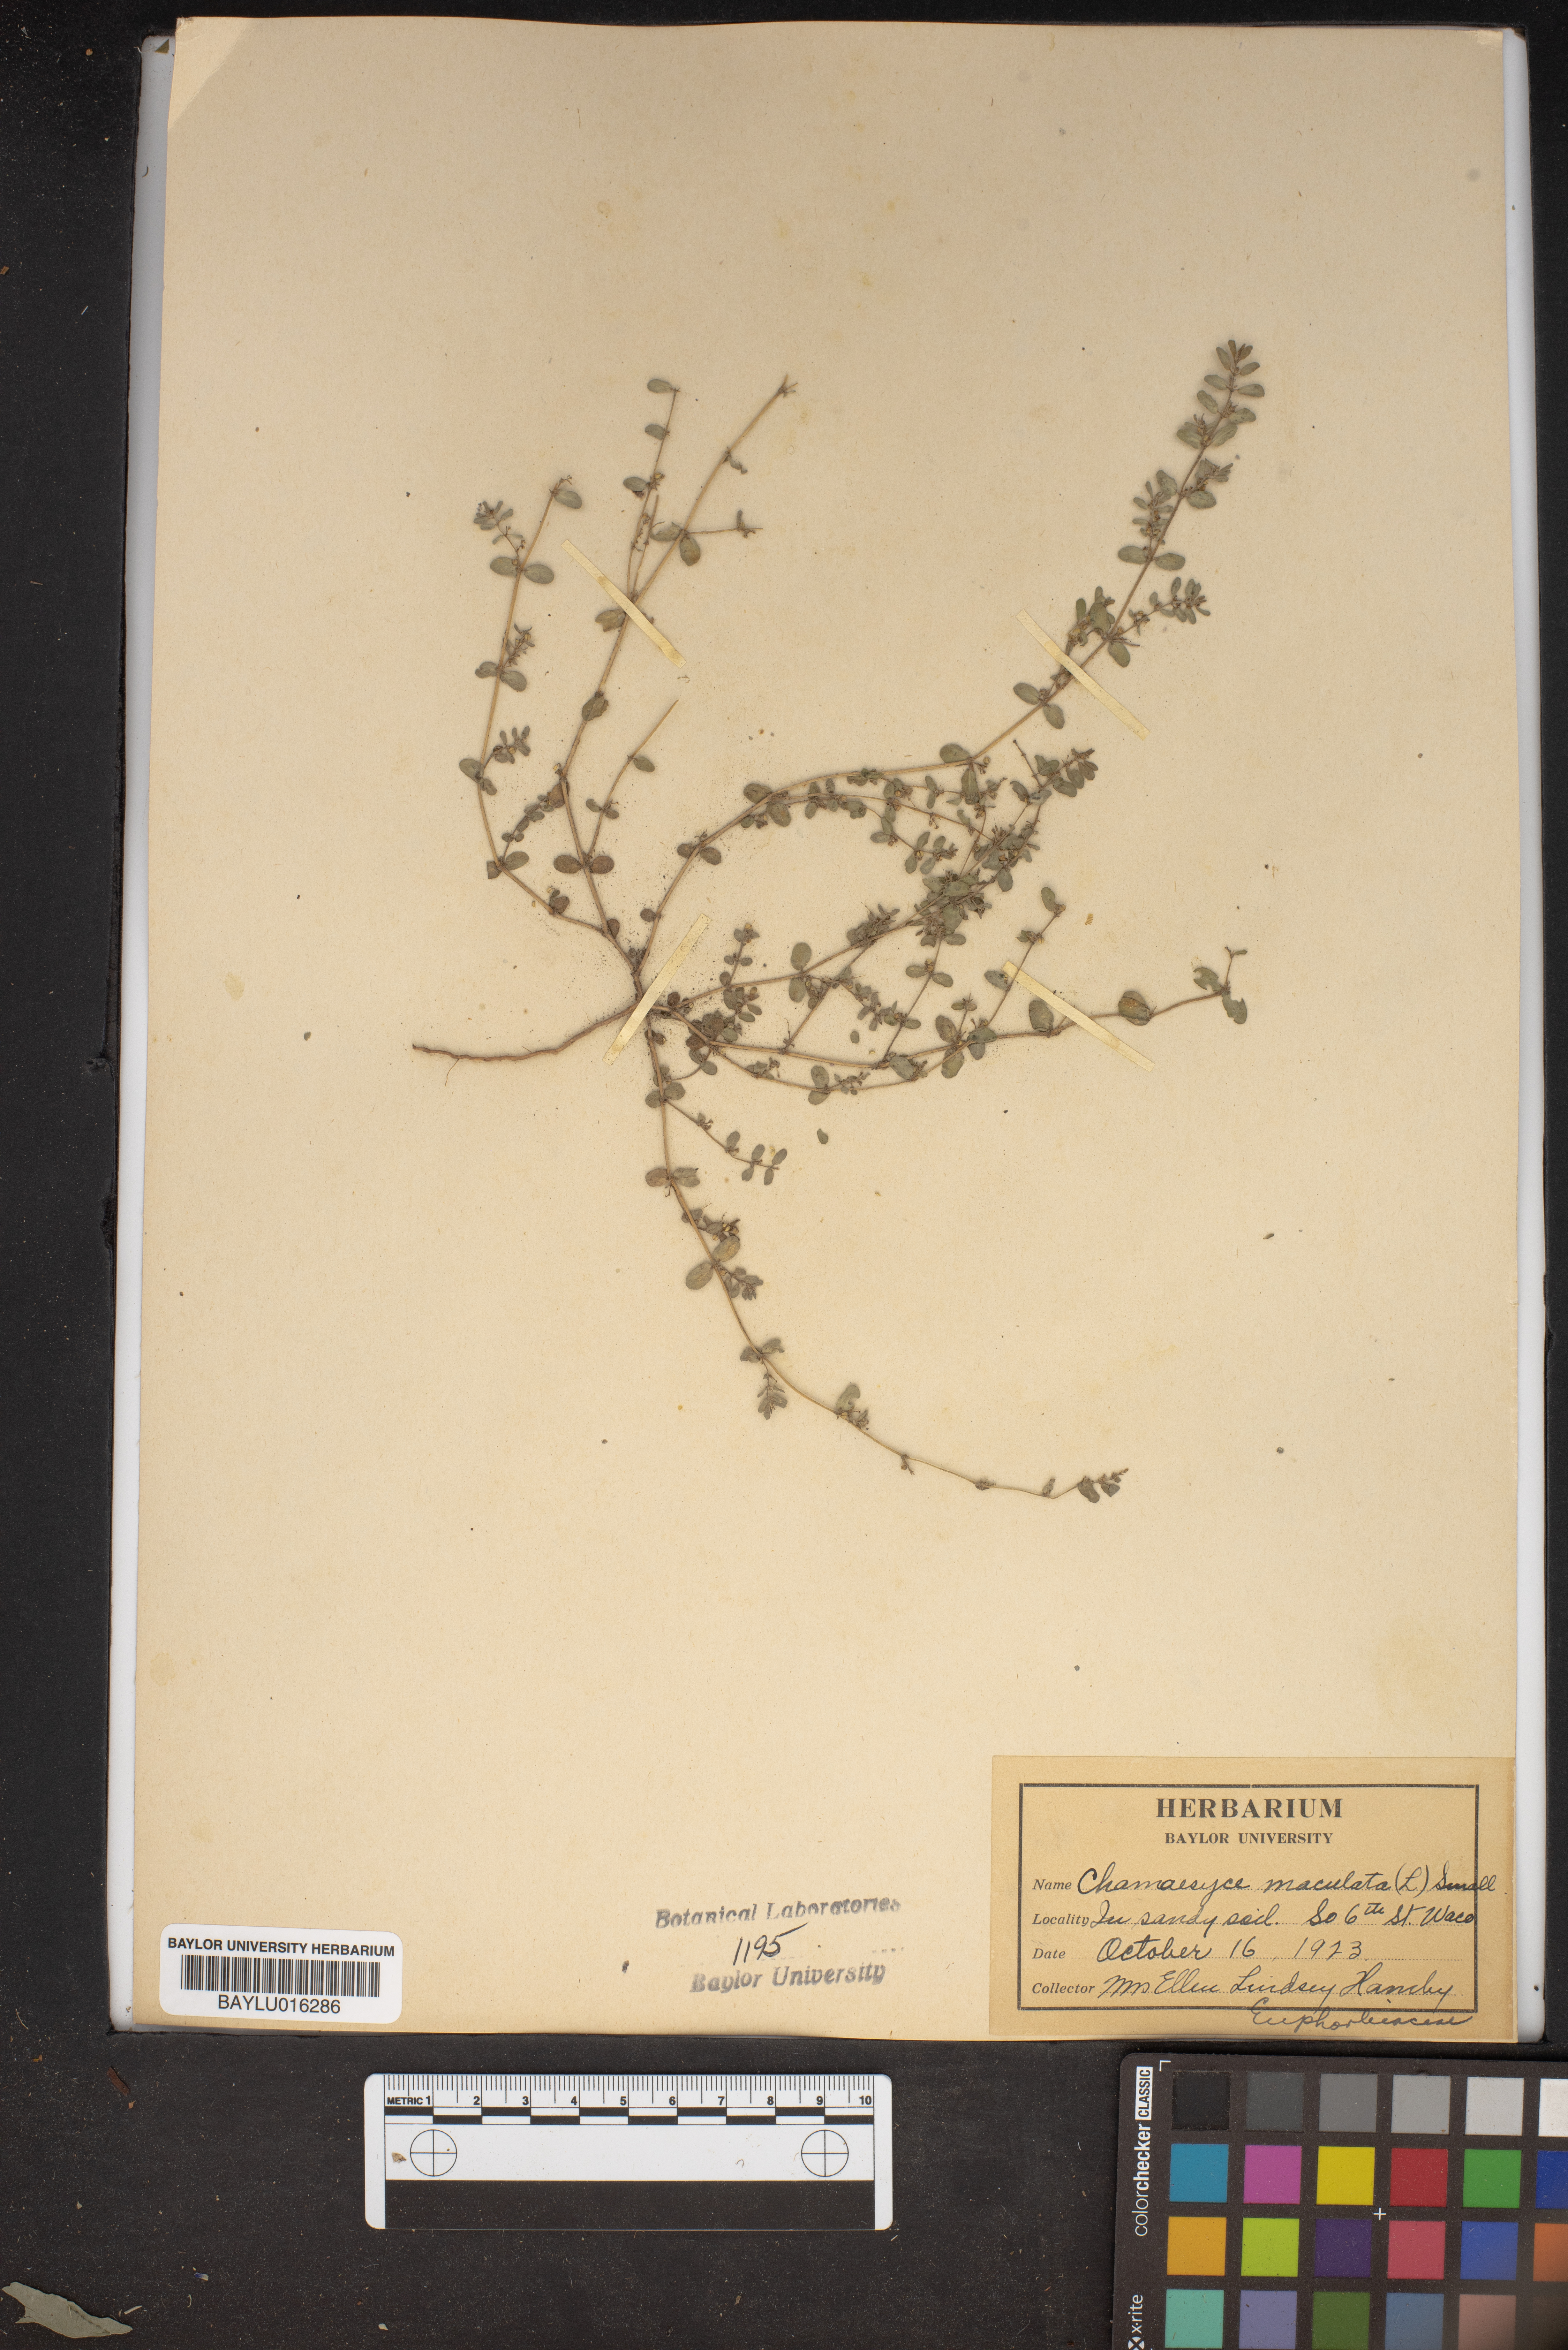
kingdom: Plantae
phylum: Tracheophyta
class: Magnoliopsida
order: Malpighiales
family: Euphorbiaceae
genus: Euphorbia
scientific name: Euphorbia maculata
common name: Spotted spurge
